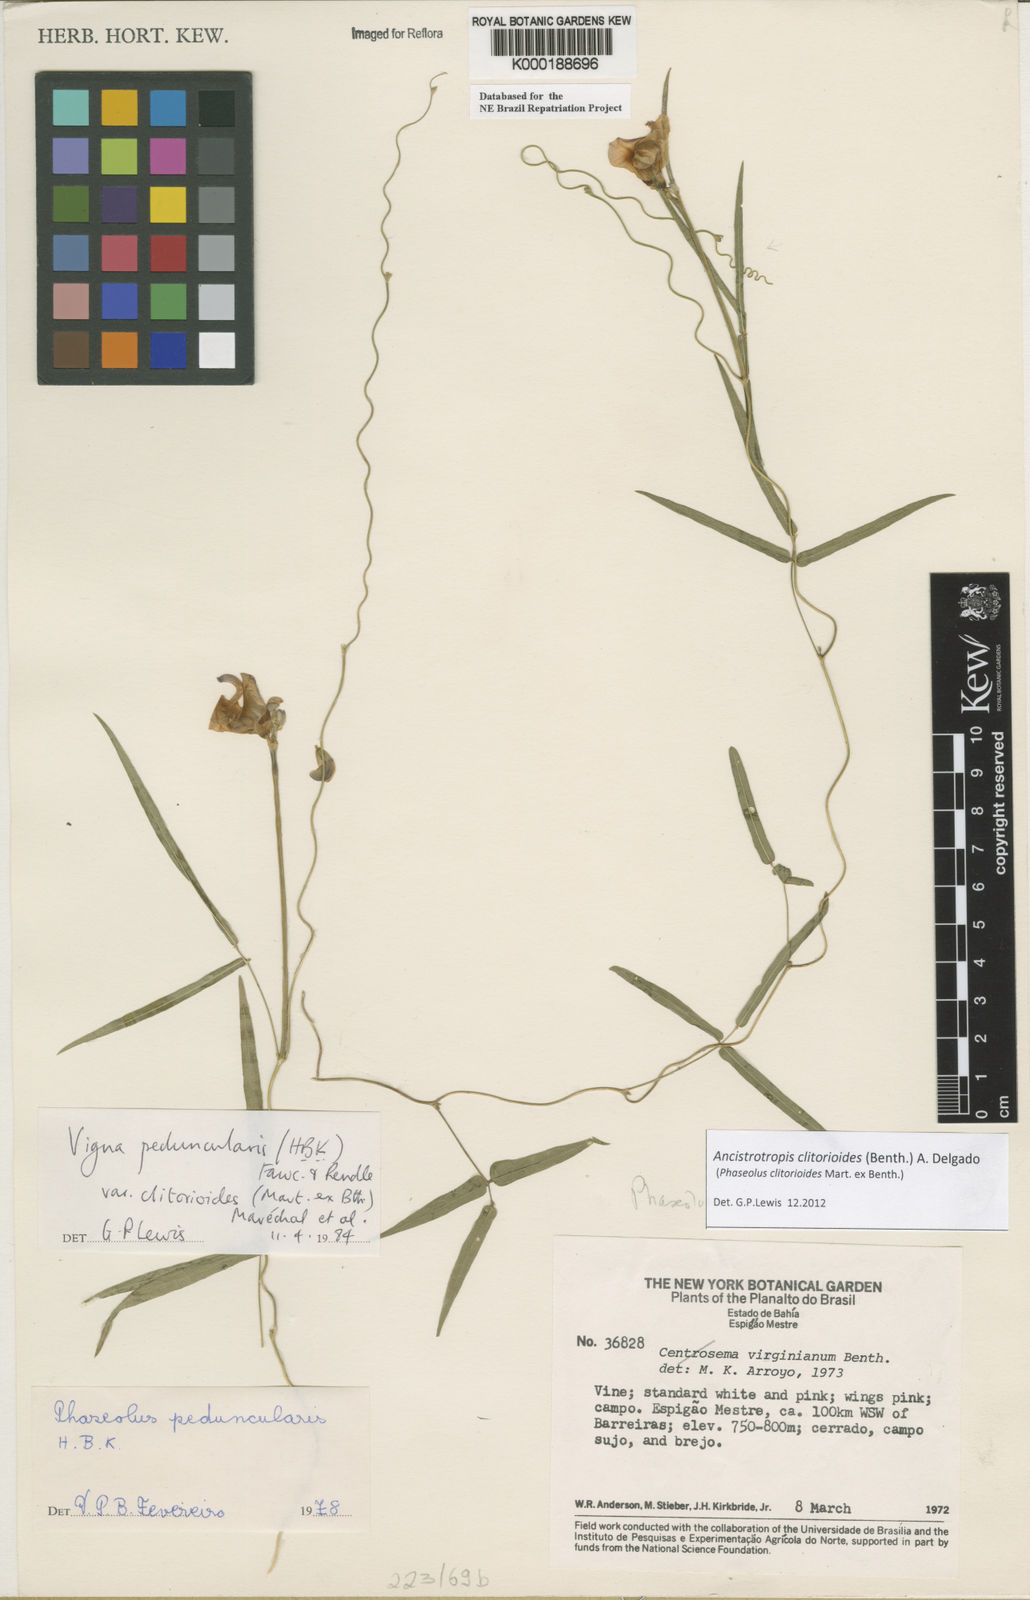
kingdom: Plantae
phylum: Tracheophyta
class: Magnoliopsida
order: Fabales
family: Fabaceae
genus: Ancistrotropis
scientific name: Ancistrotropis peduncularis
